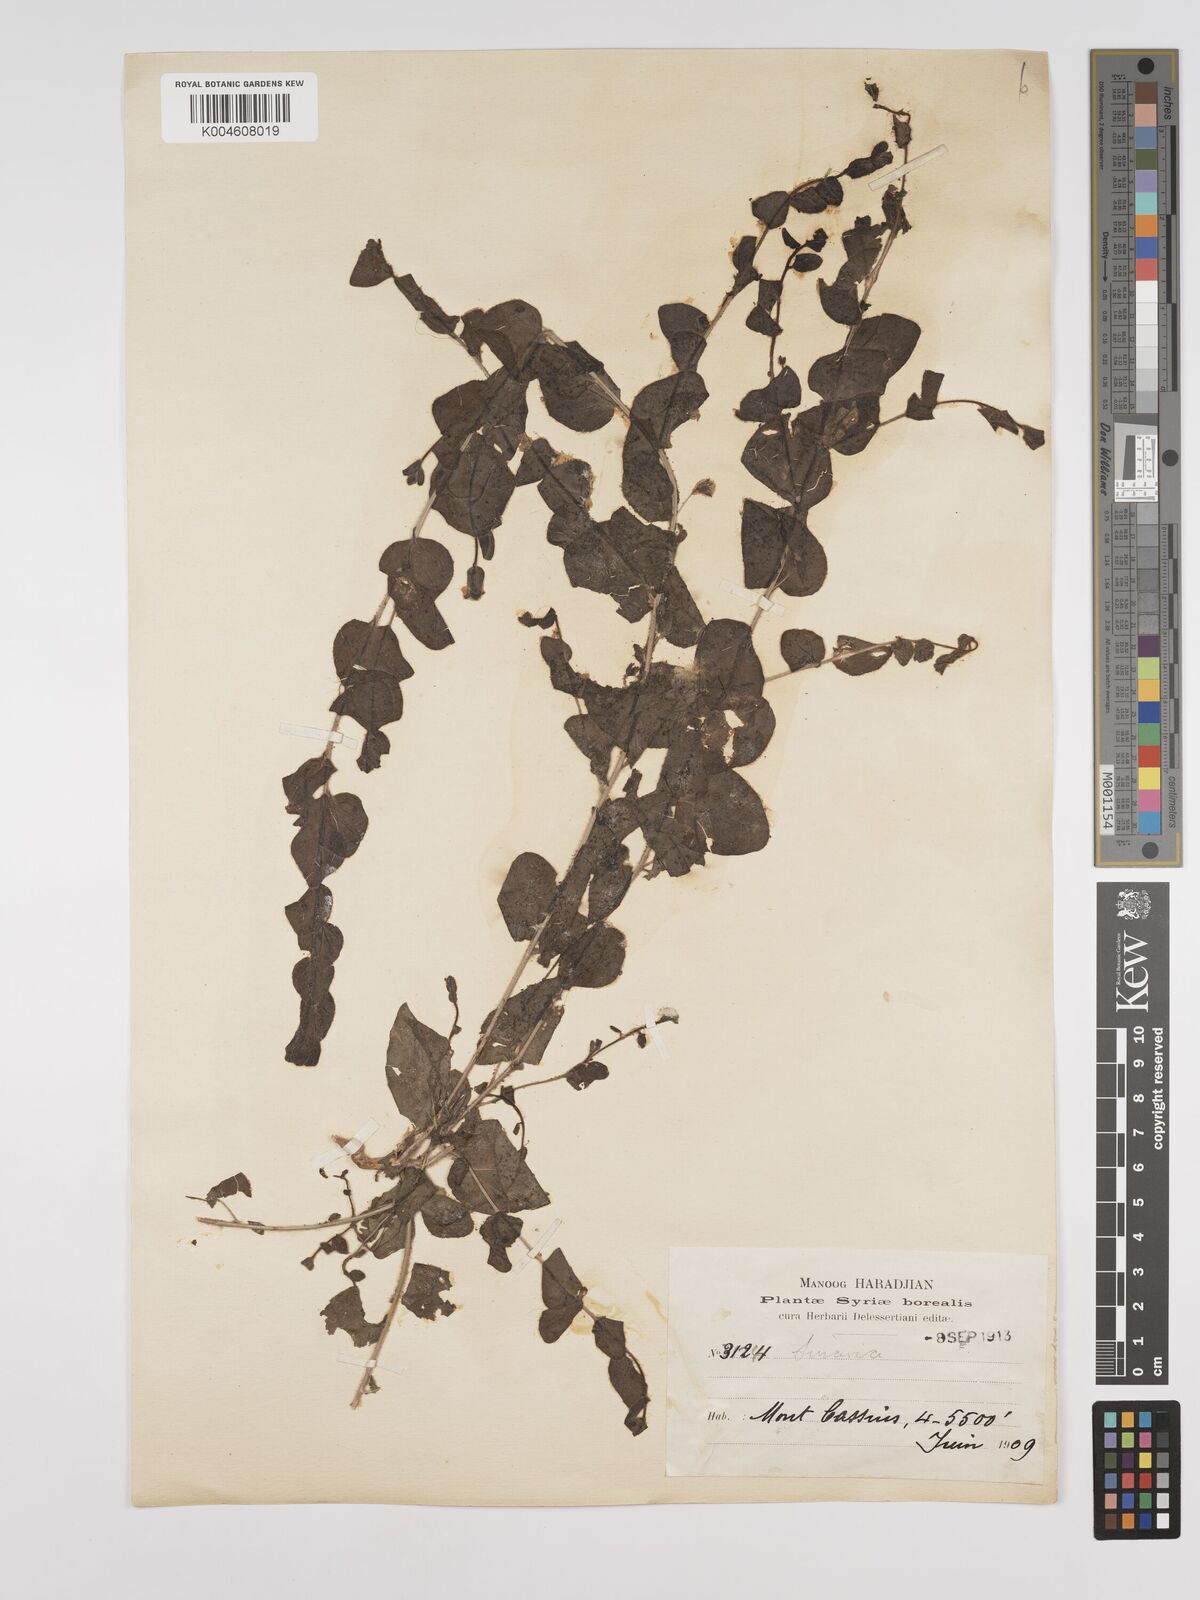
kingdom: Plantae
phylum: Tracheophyta
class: Magnoliopsida
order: Lamiales
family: Plantaginaceae
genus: Kickxia
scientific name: Kickxia spuria
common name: Round-leaved fluellen
